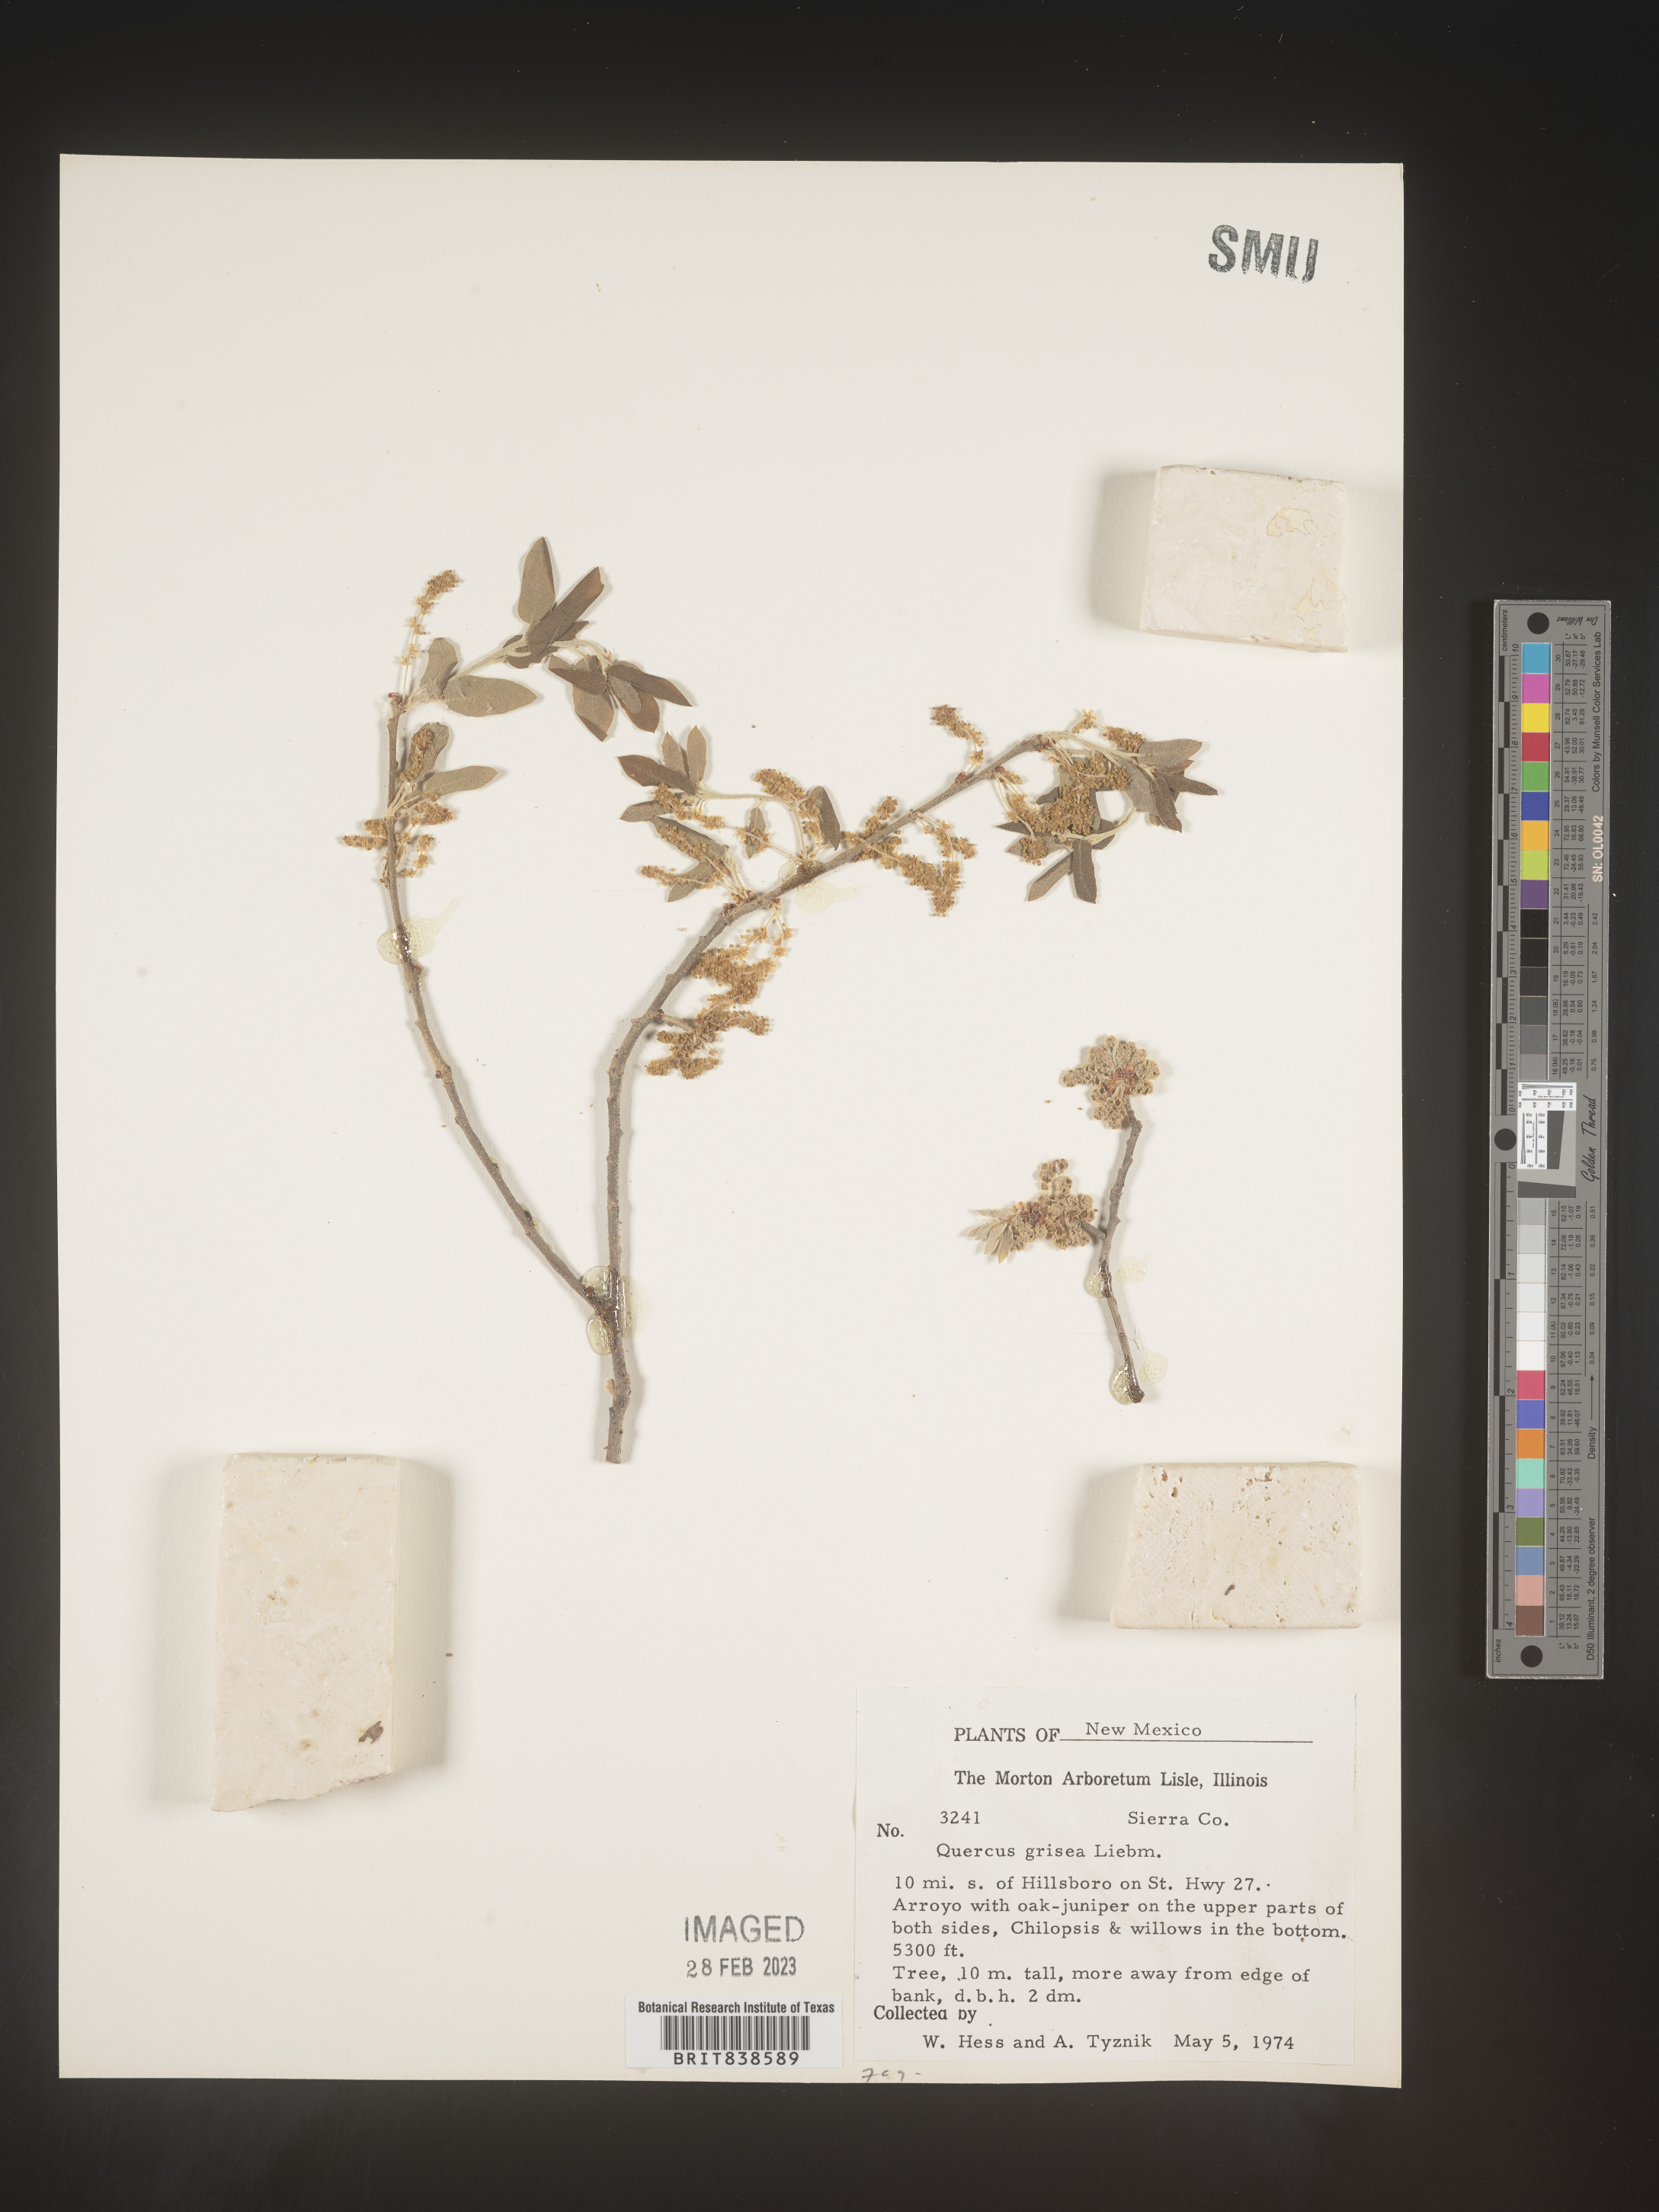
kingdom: Plantae
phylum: Tracheophyta
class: Magnoliopsida
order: Fagales
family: Fagaceae
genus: Quercus
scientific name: Quercus grisea
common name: Gray oak
